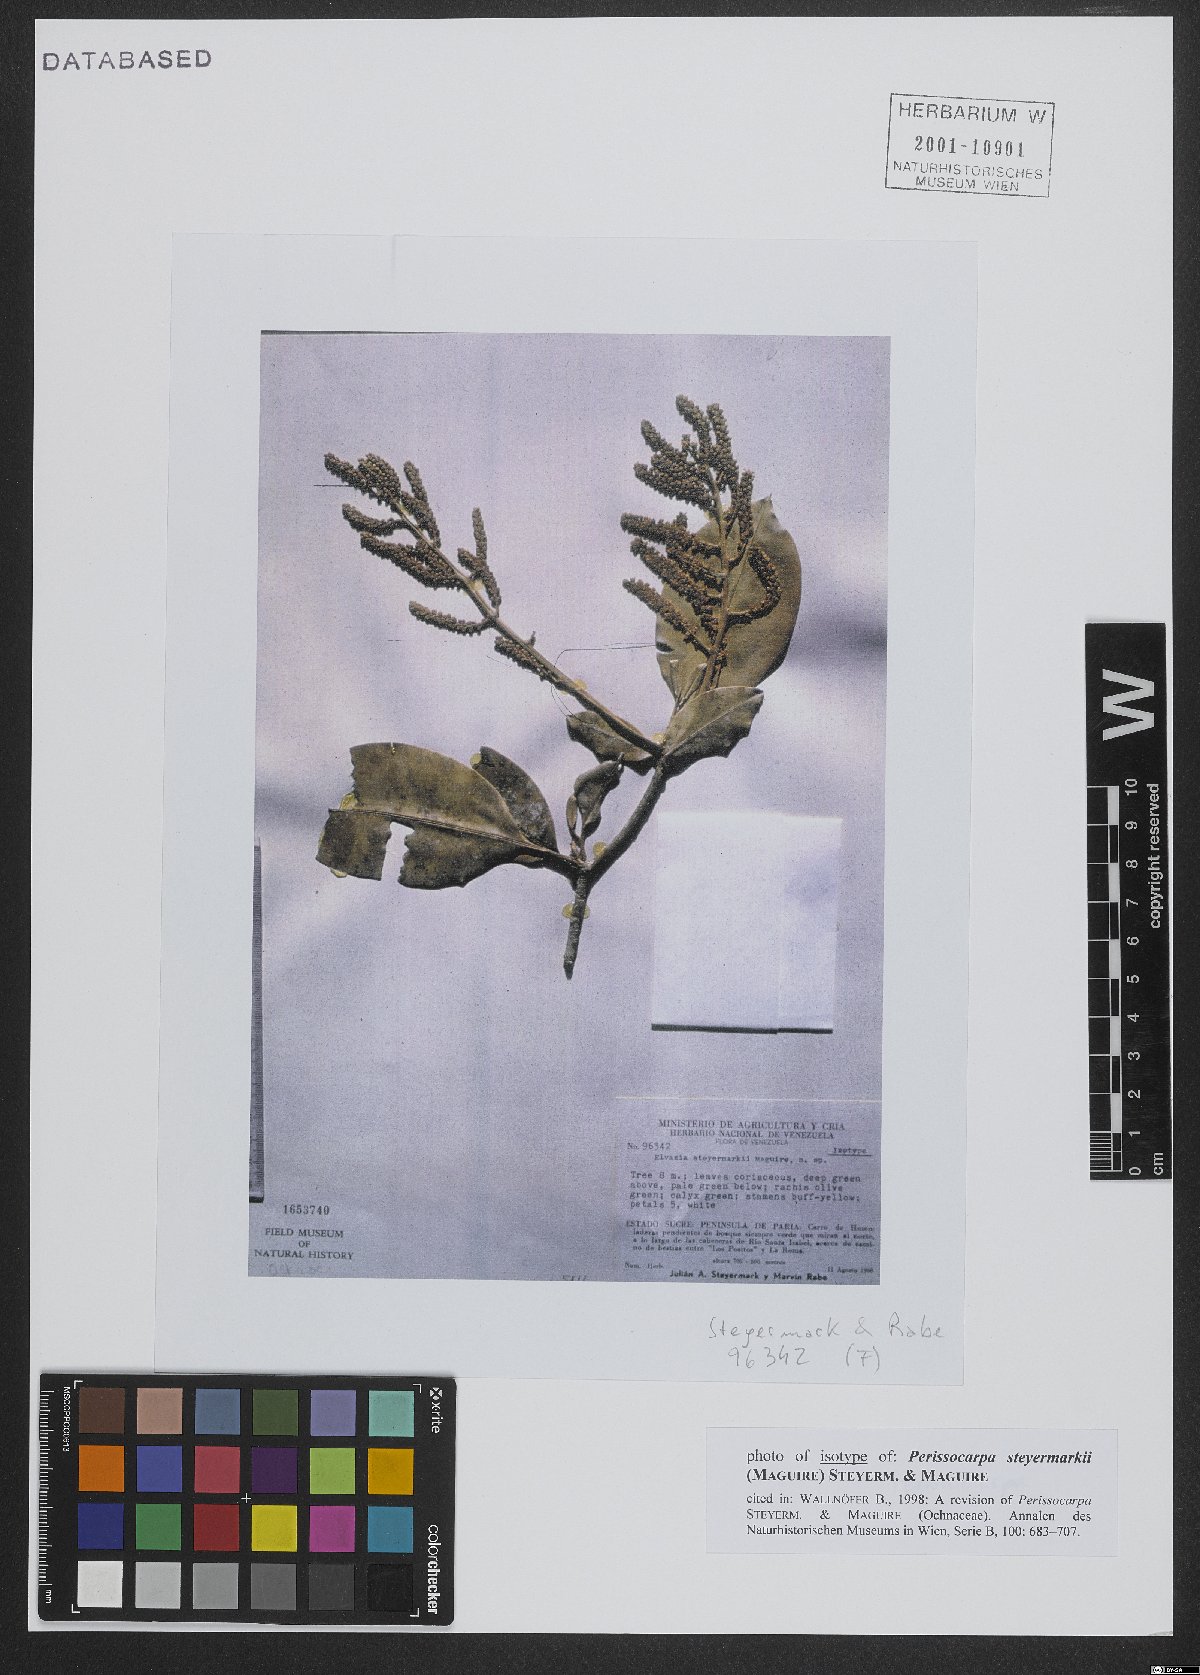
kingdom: Plantae
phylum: Tracheophyta
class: Magnoliopsida
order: Malpighiales
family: Ochnaceae
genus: Perissocarpa
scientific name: Perissocarpa steyermarkii
